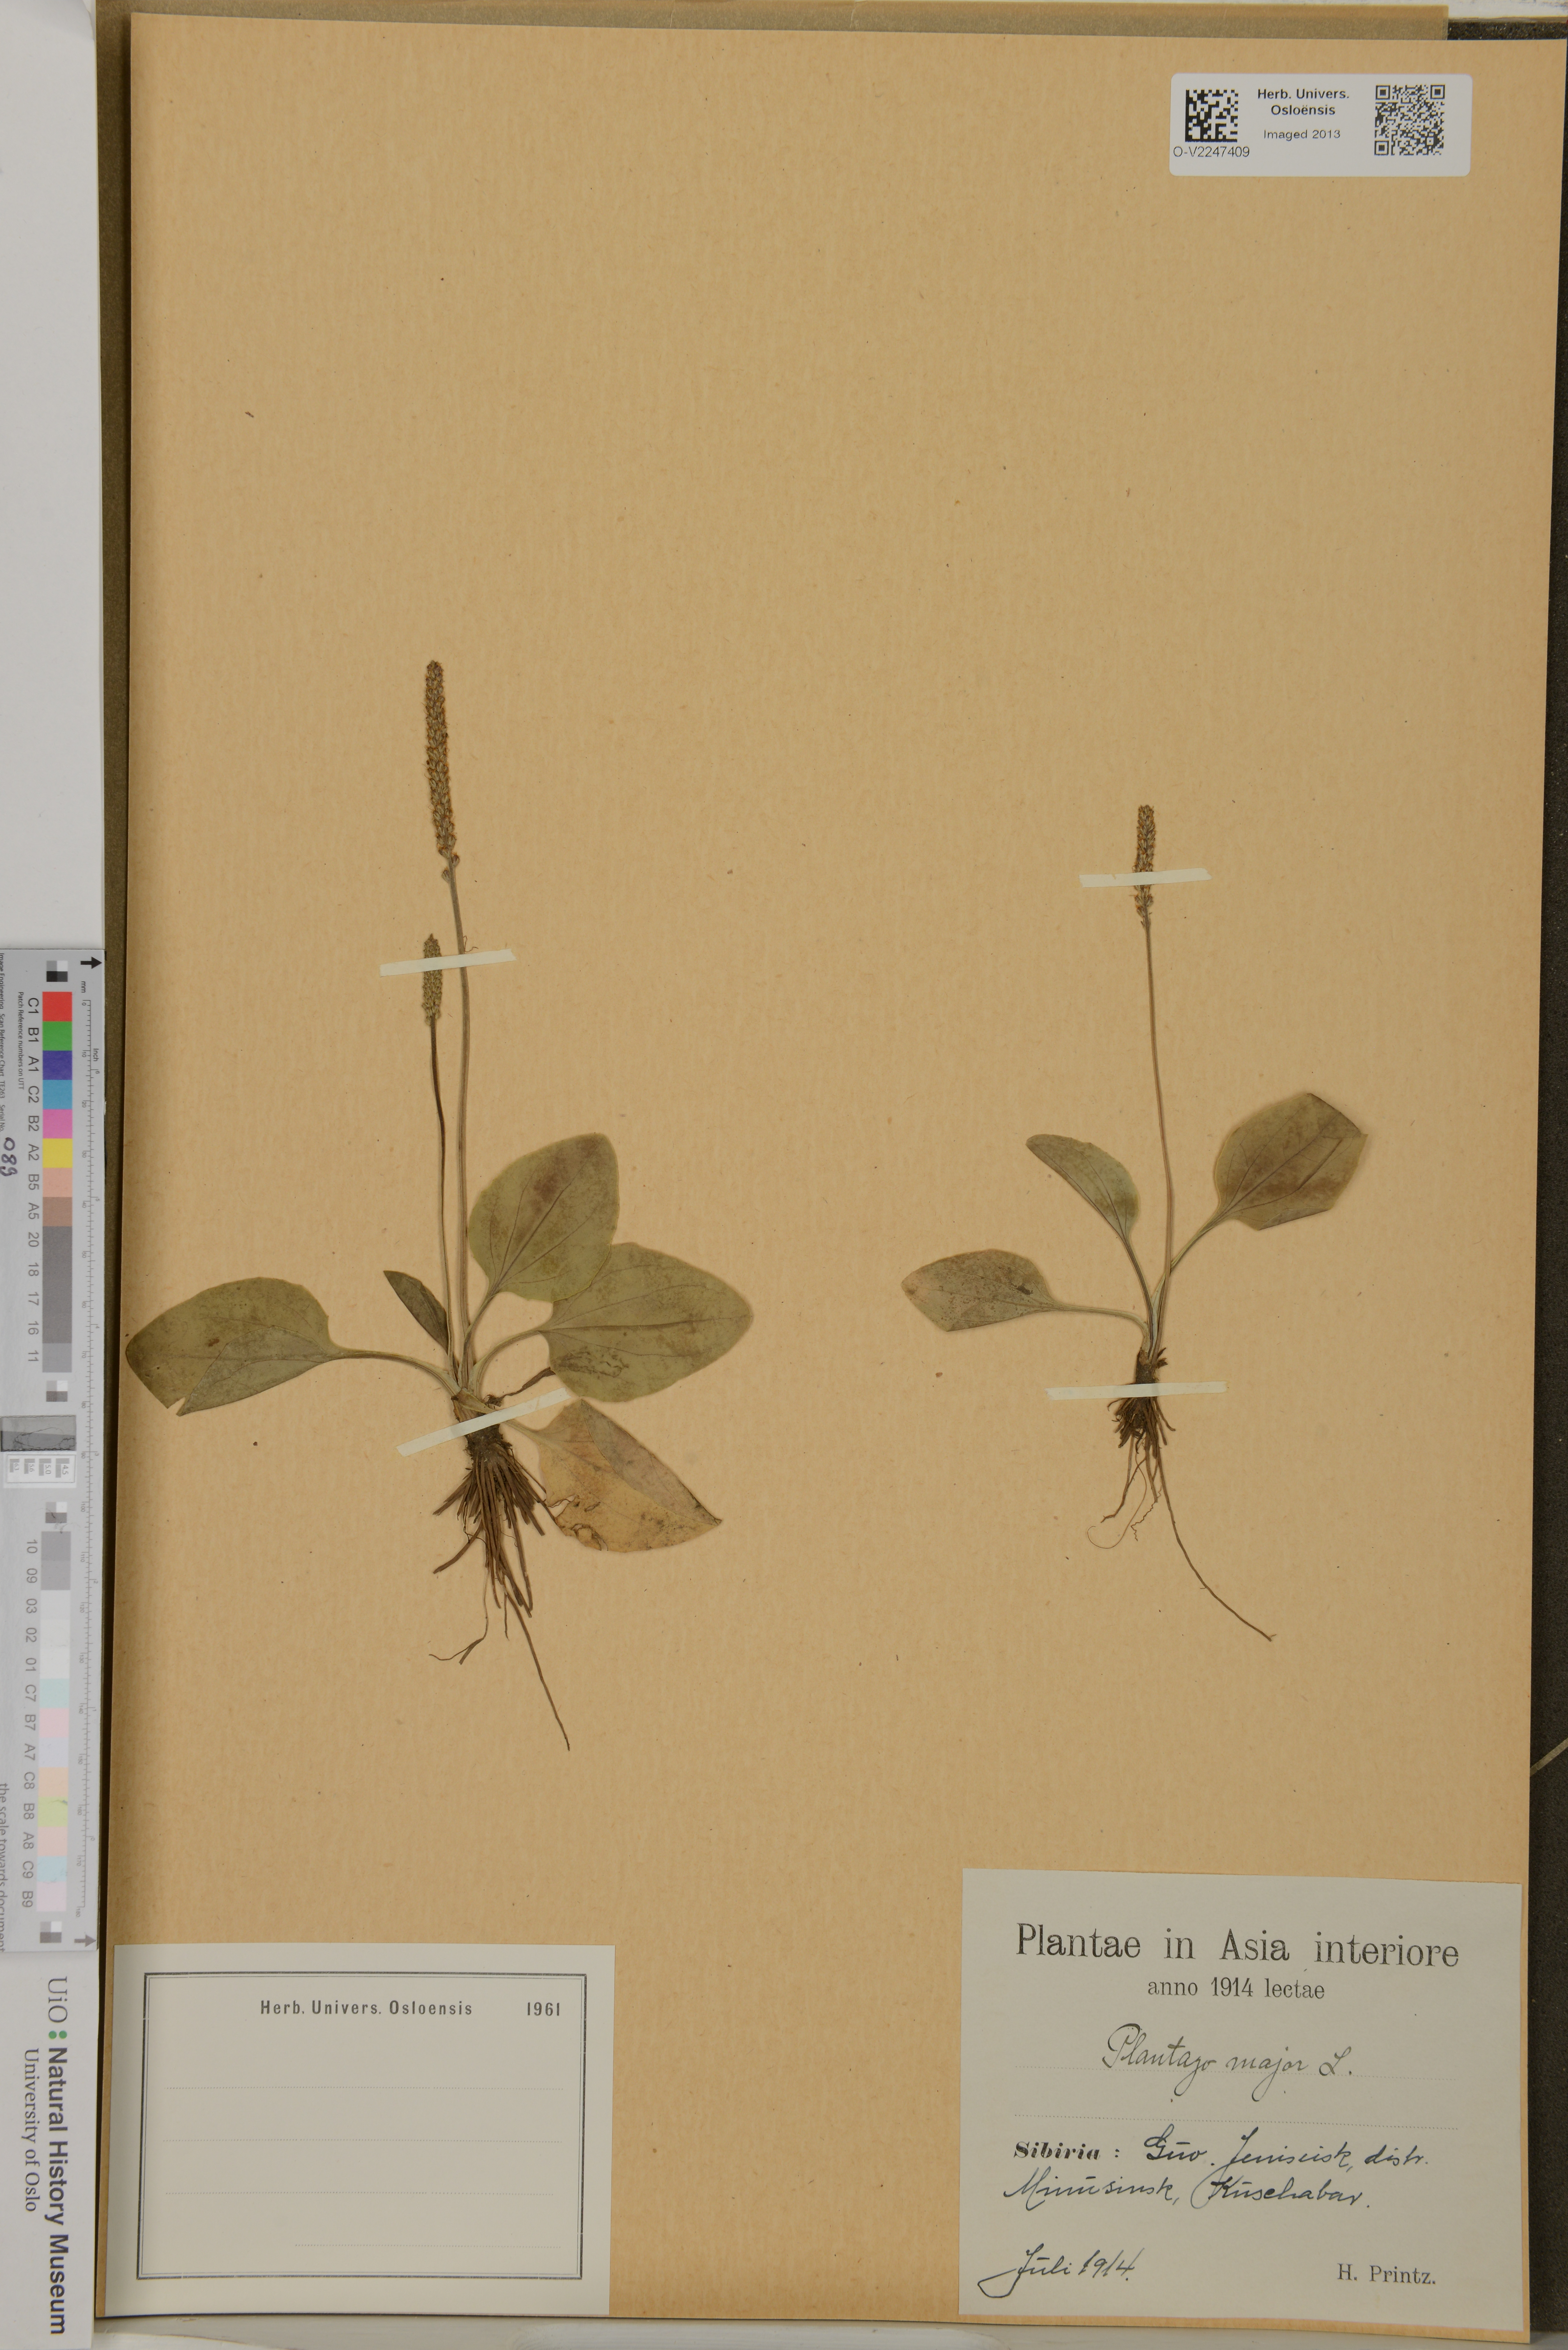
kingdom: Plantae
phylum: Tracheophyta
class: Magnoliopsida
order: Lamiales
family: Plantaginaceae
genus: Plantago
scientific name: Plantago major
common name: Common plantain
